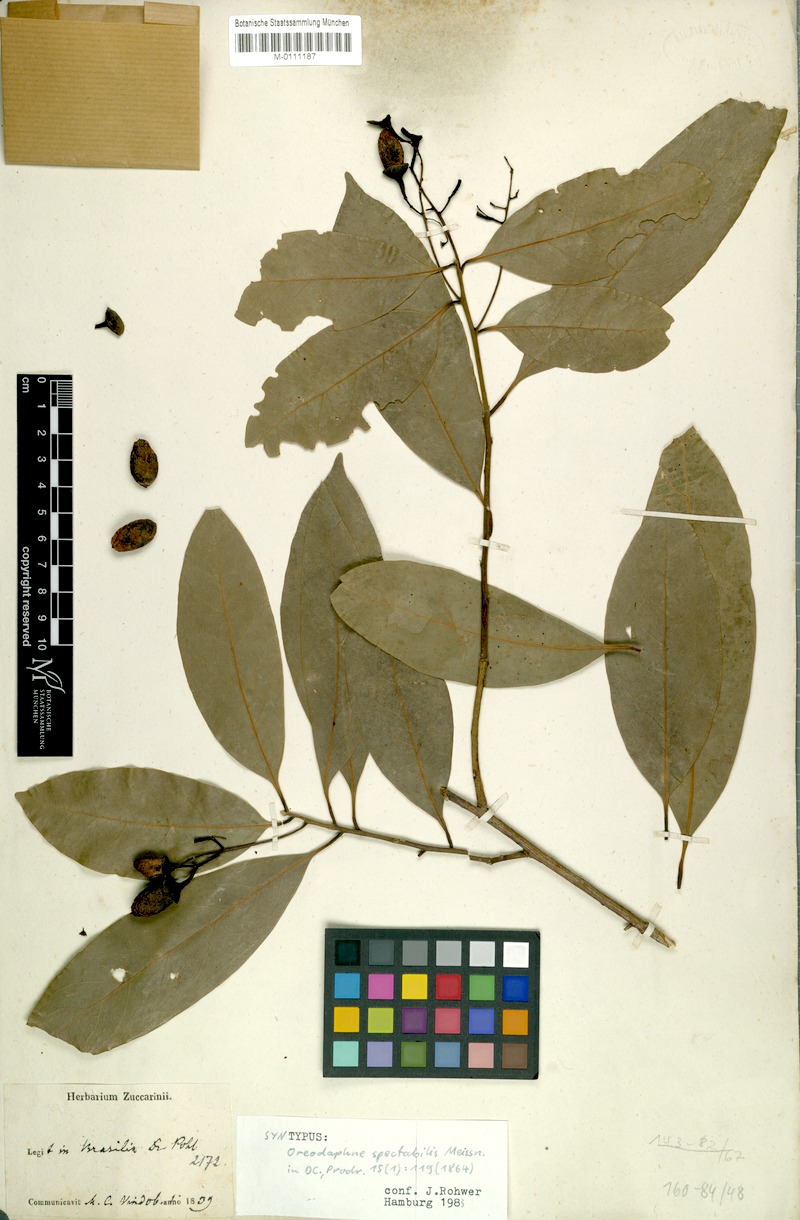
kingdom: Plantae
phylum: Tracheophyta
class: Magnoliopsida
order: Laurales
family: Lauraceae
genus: Ocotea
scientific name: Ocotea spectabilis
